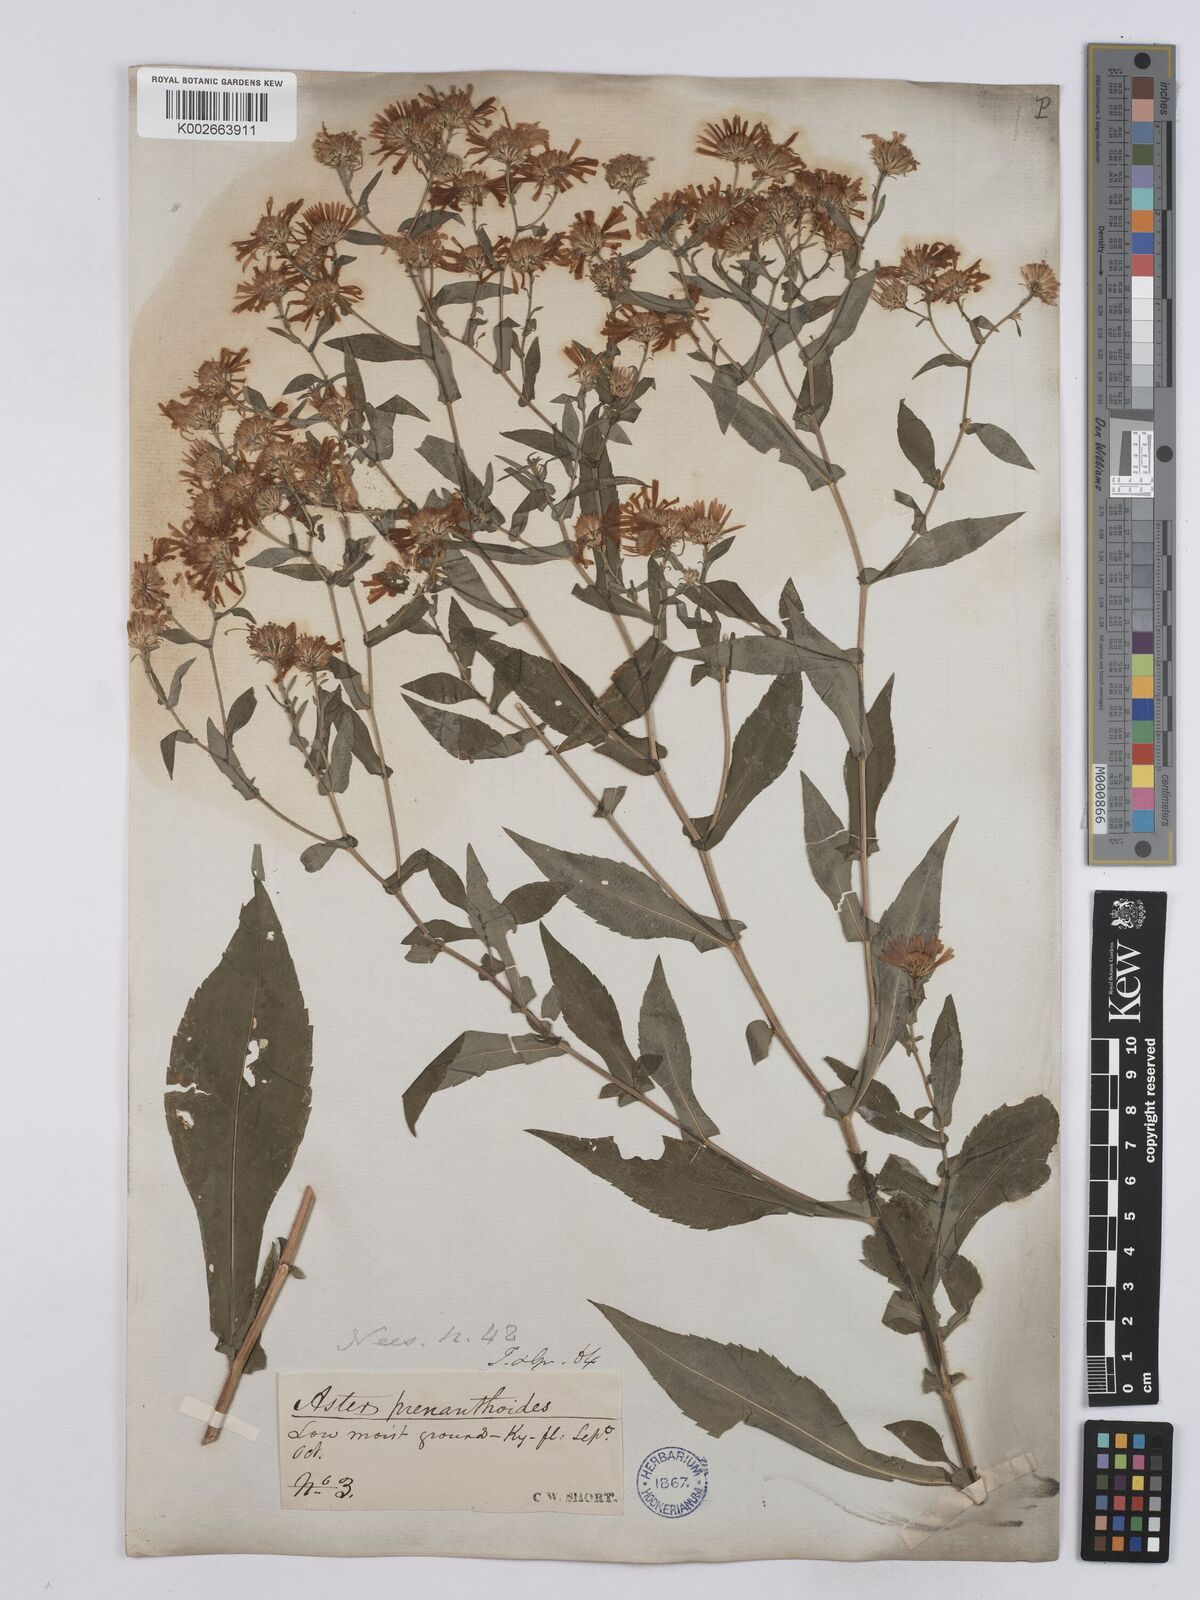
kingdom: Plantae
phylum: Tracheophyta
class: Magnoliopsida
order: Asterales
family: Asteraceae
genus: Symphyotrichum
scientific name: Symphyotrichum prenanthoides
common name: Crooked-stem aster
